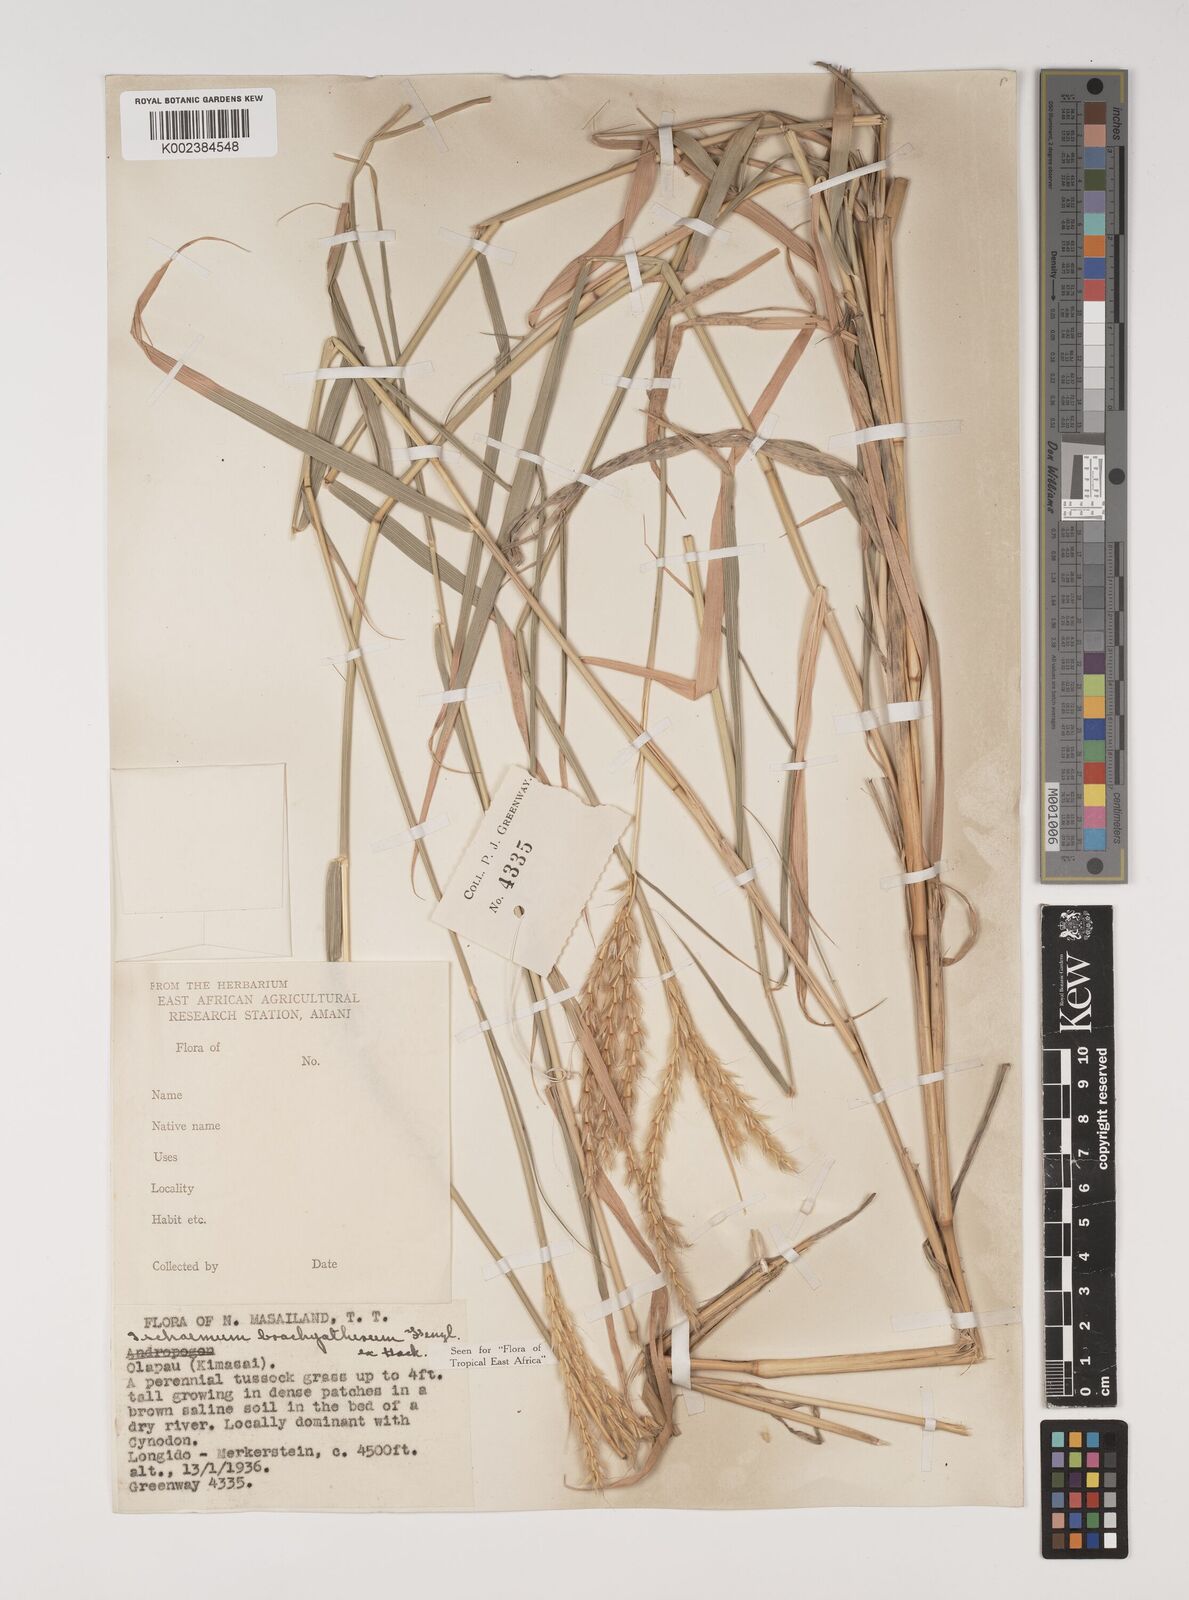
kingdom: Plantae
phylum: Tracheophyta
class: Liliopsida
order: Poales
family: Poaceae
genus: Ischaemum
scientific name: Ischaemum afrum
